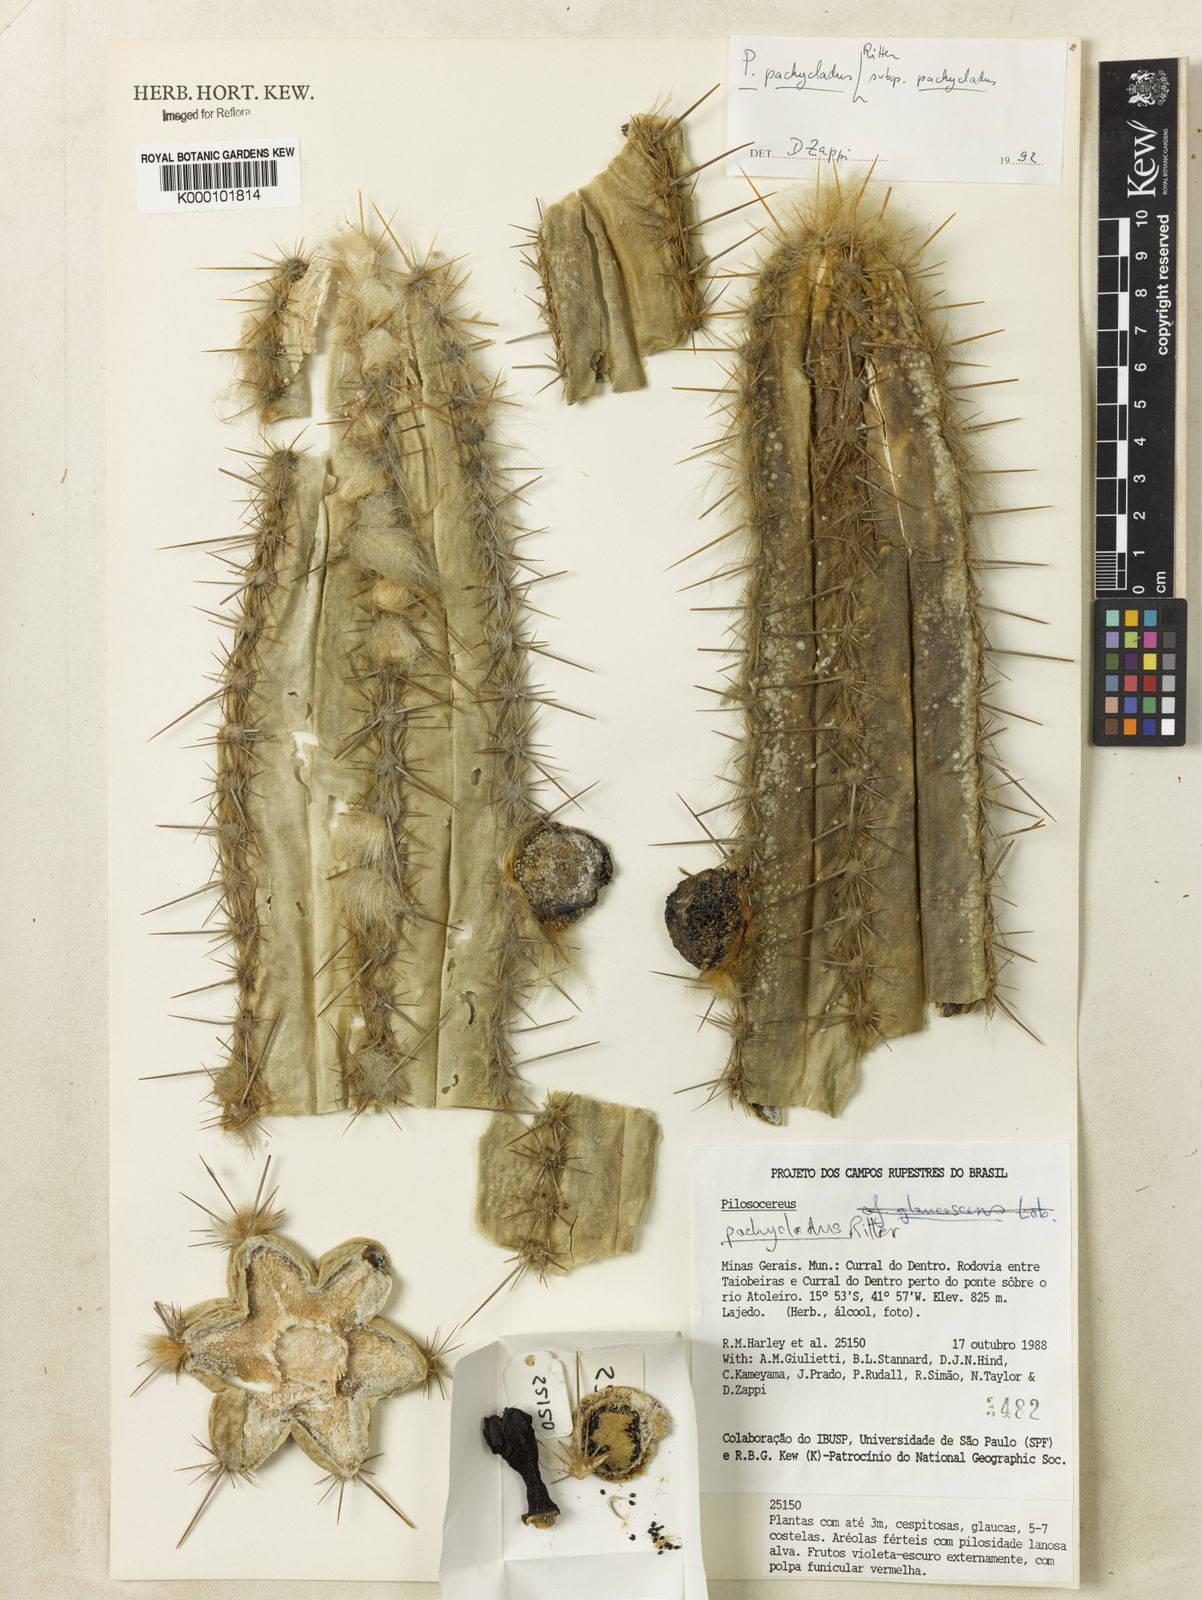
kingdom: Plantae
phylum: Tracheophyta
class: Magnoliopsida
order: Caryophyllales
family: Cactaceae
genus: Pilosocereus
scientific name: Pilosocereus pachycladus
